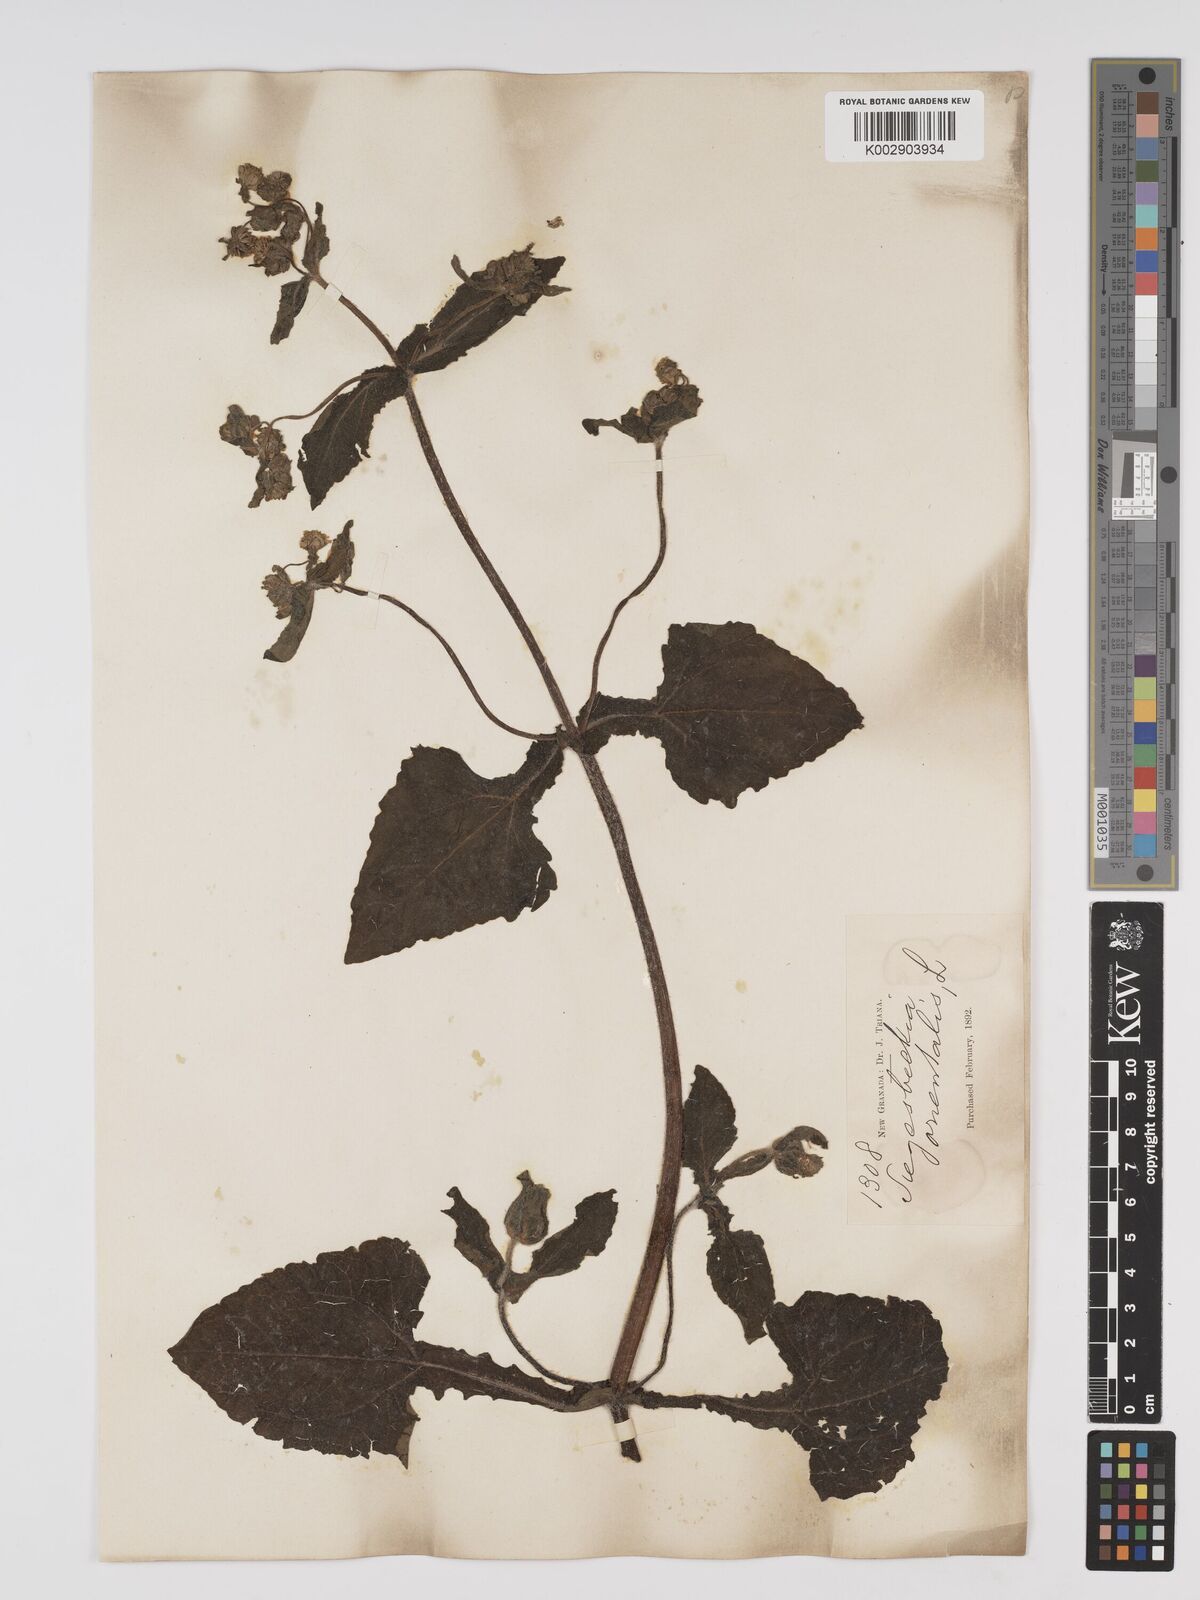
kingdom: Plantae
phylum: Tracheophyta
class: Magnoliopsida
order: Asterales
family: Asteraceae
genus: Sigesbeckia
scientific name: Sigesbeckia orientalis
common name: Eastern st paul's-wort
